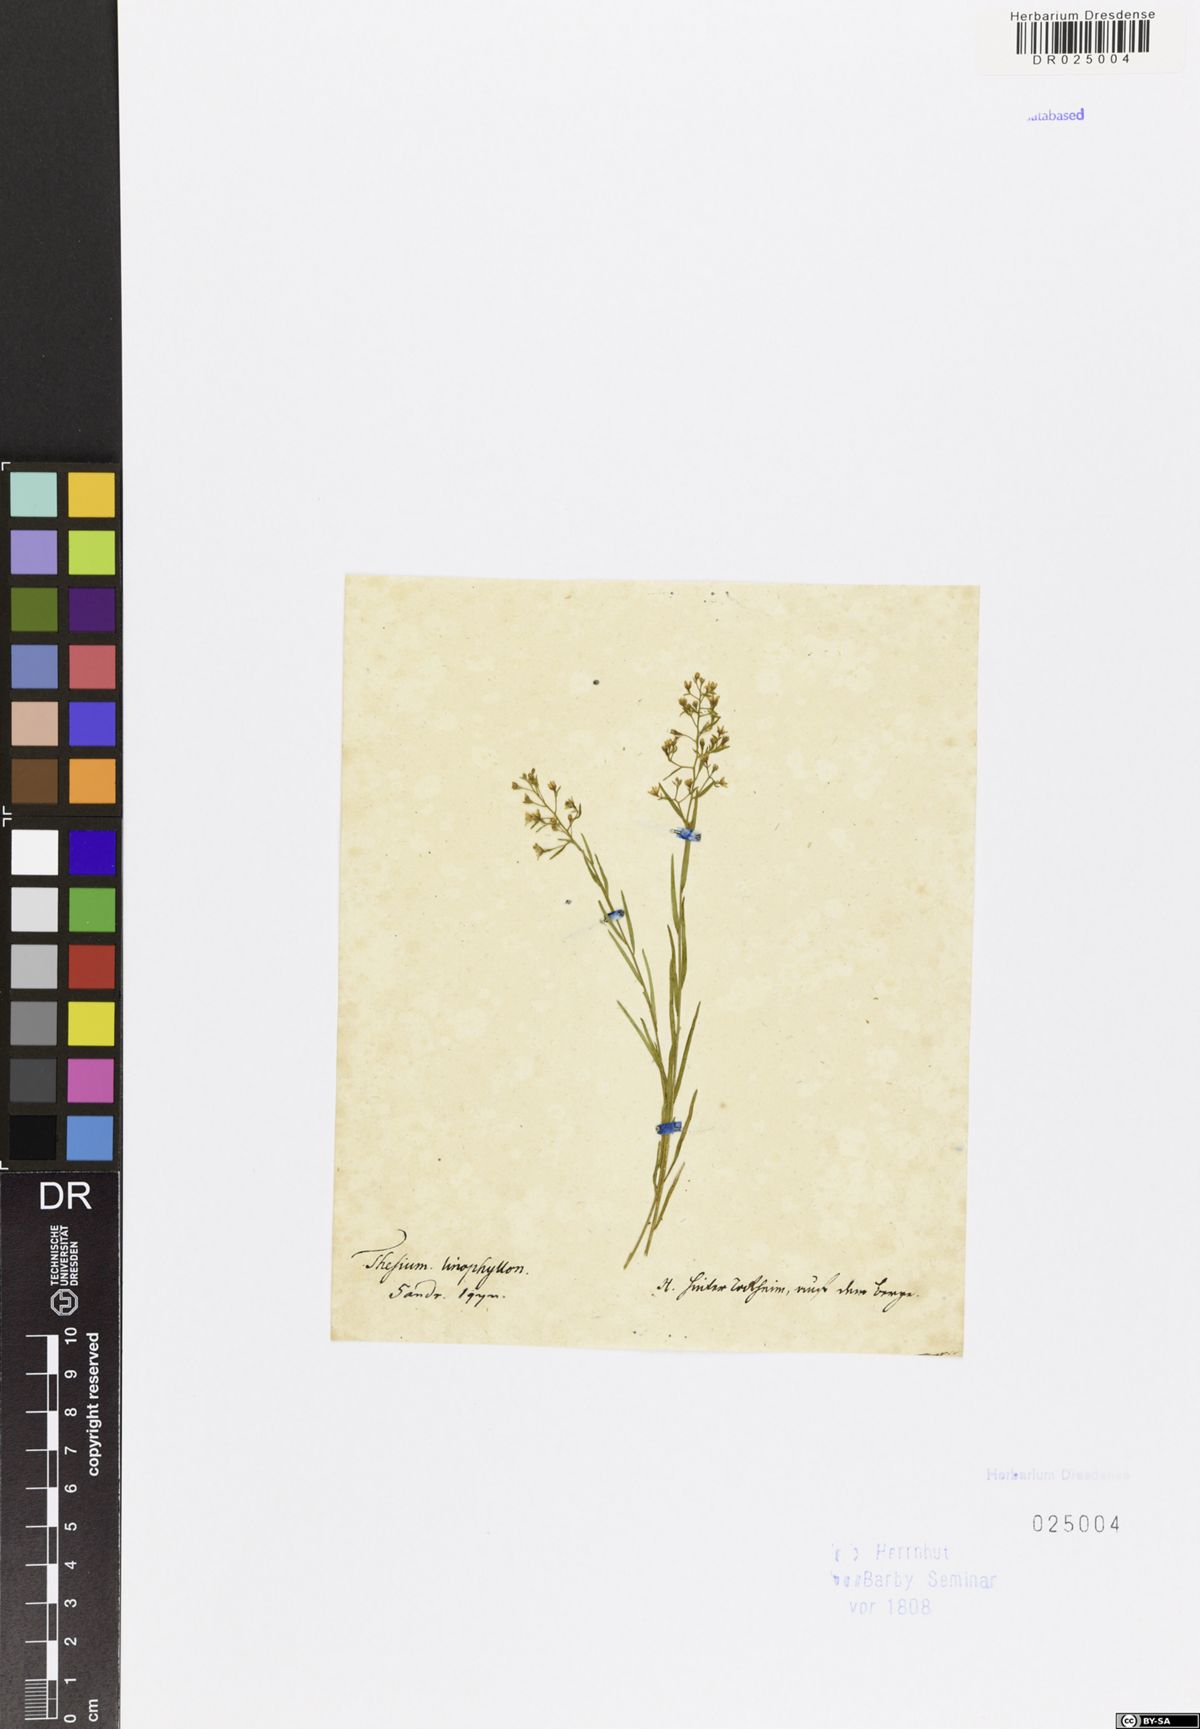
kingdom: Plantae
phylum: Tracheophyta
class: Magnoliopsida
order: Santalales
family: Thesiaceae
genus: Thesium
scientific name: Thesium linophyllon
